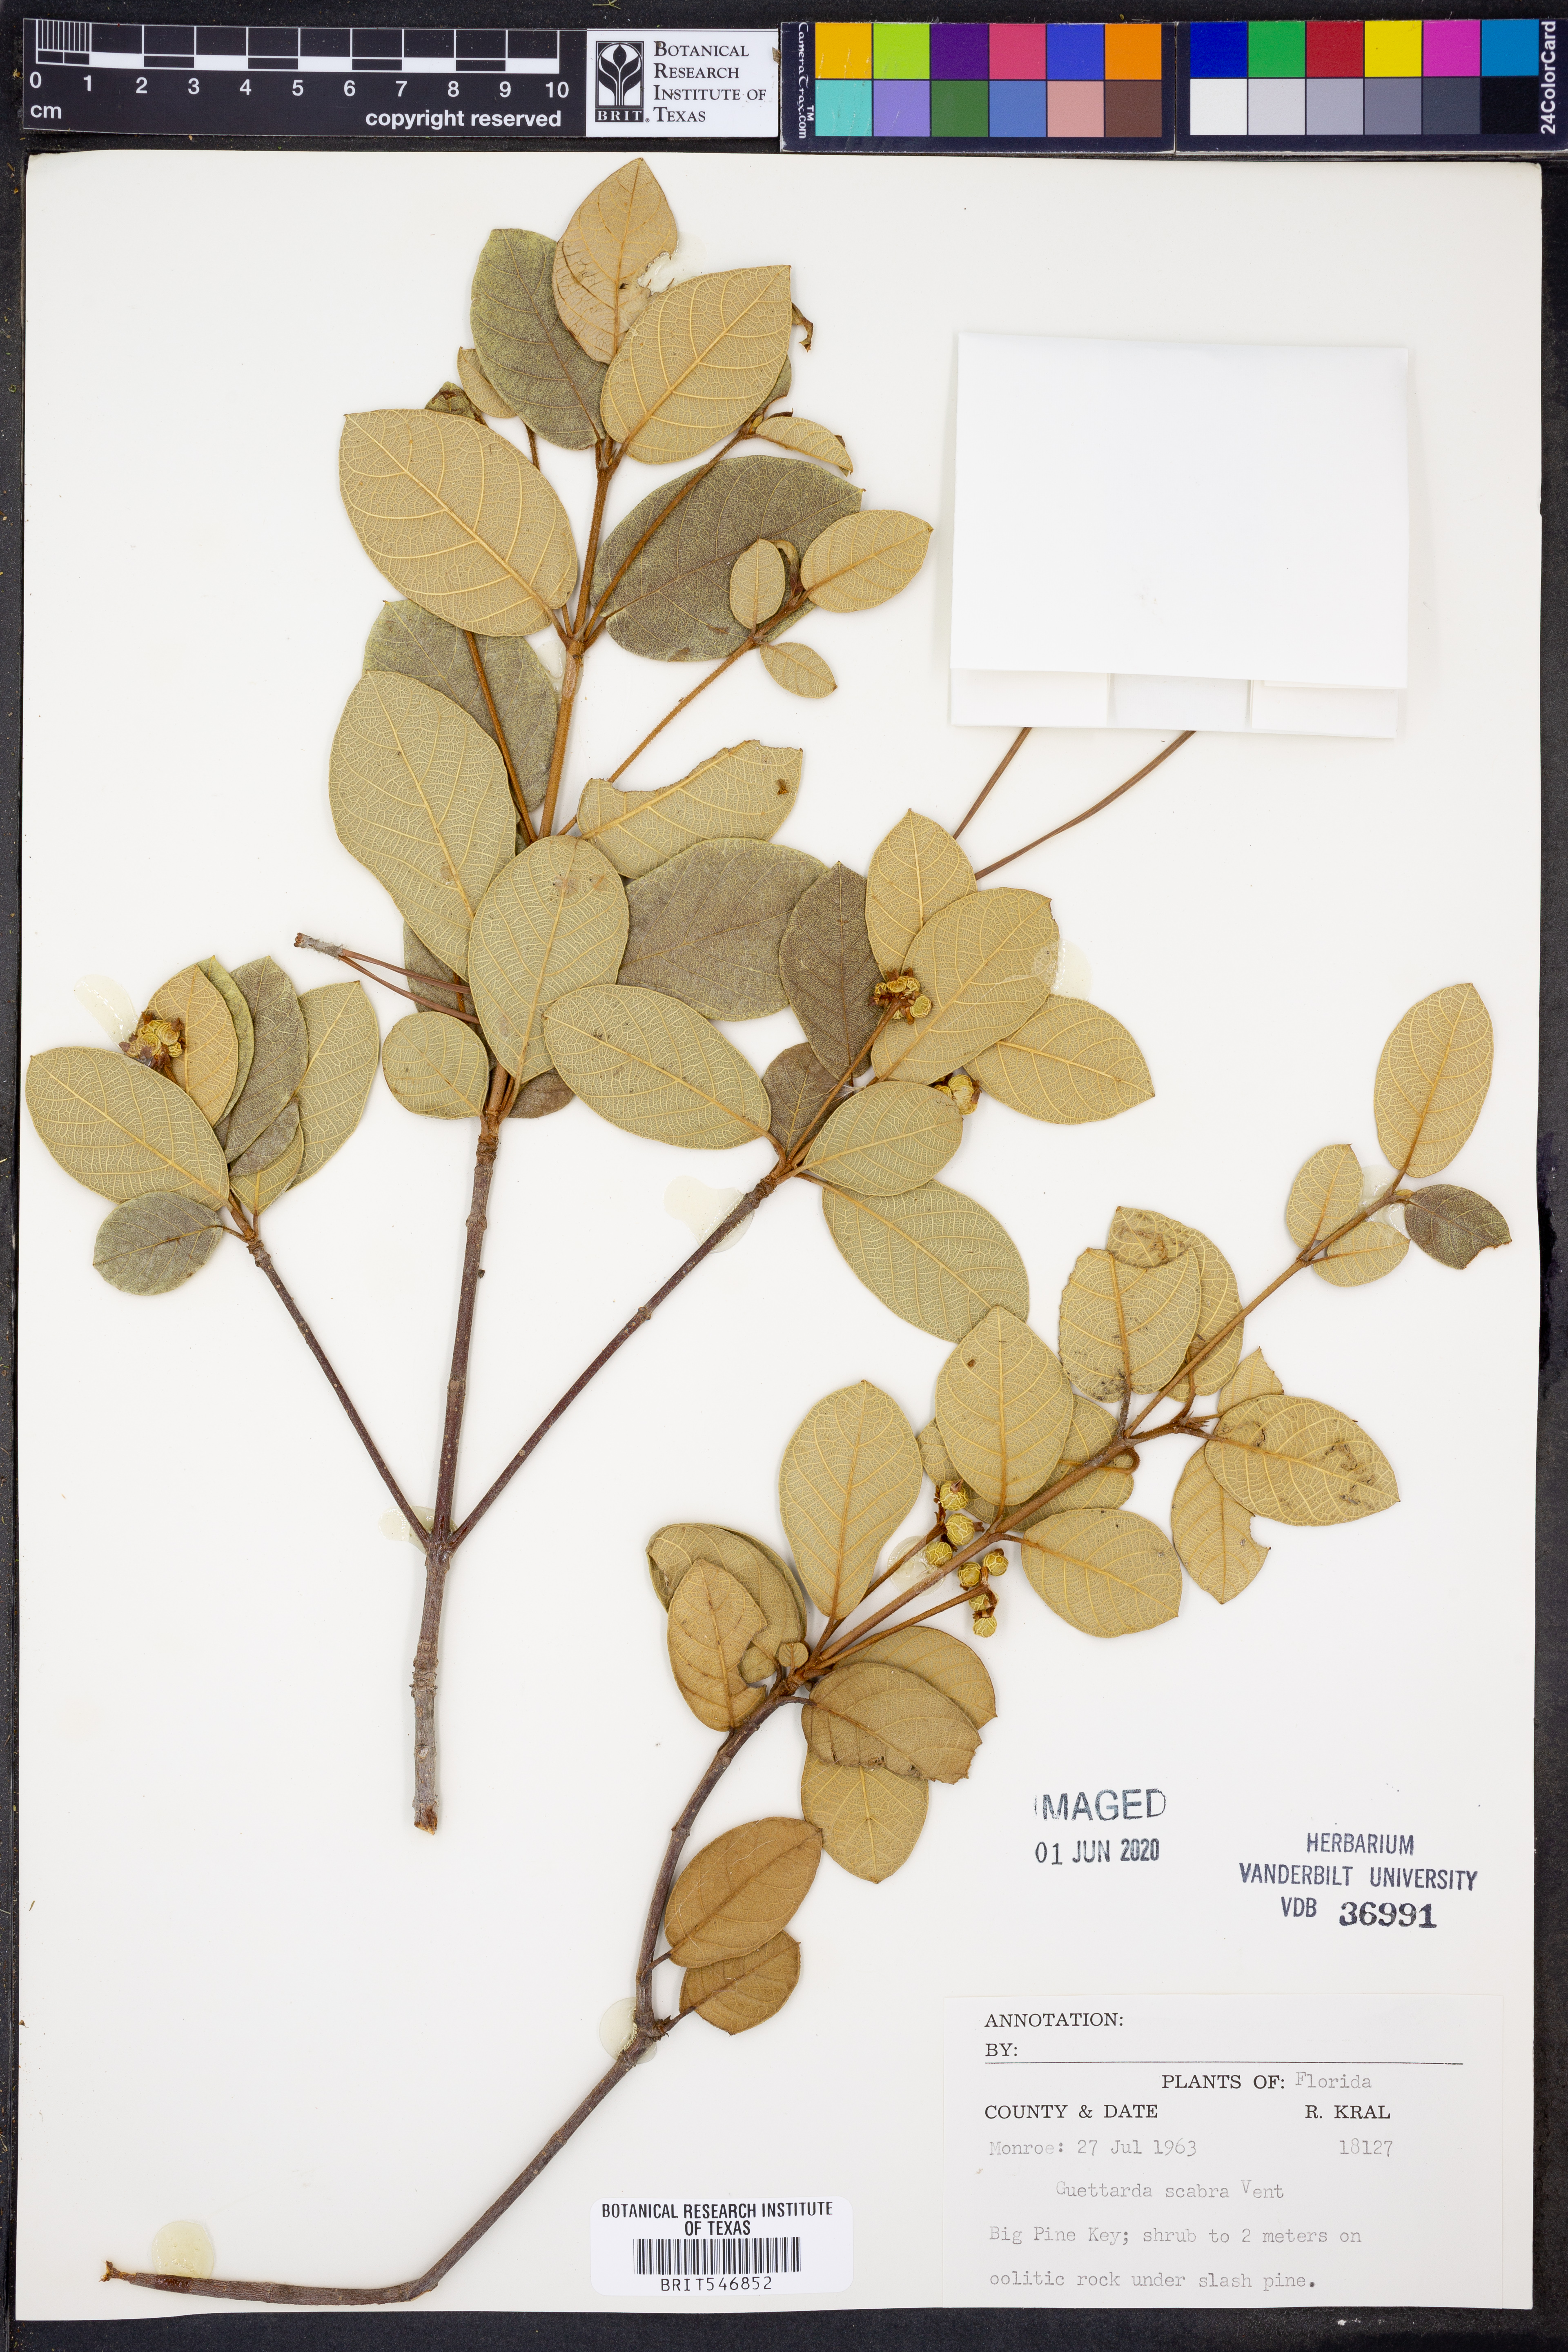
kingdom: Plantae
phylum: Tracheophyta
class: Magnoliopsida
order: Gentianales
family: Rubiaceae
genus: Guettarda
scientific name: Guettarda scabra
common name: Pigeon bay
